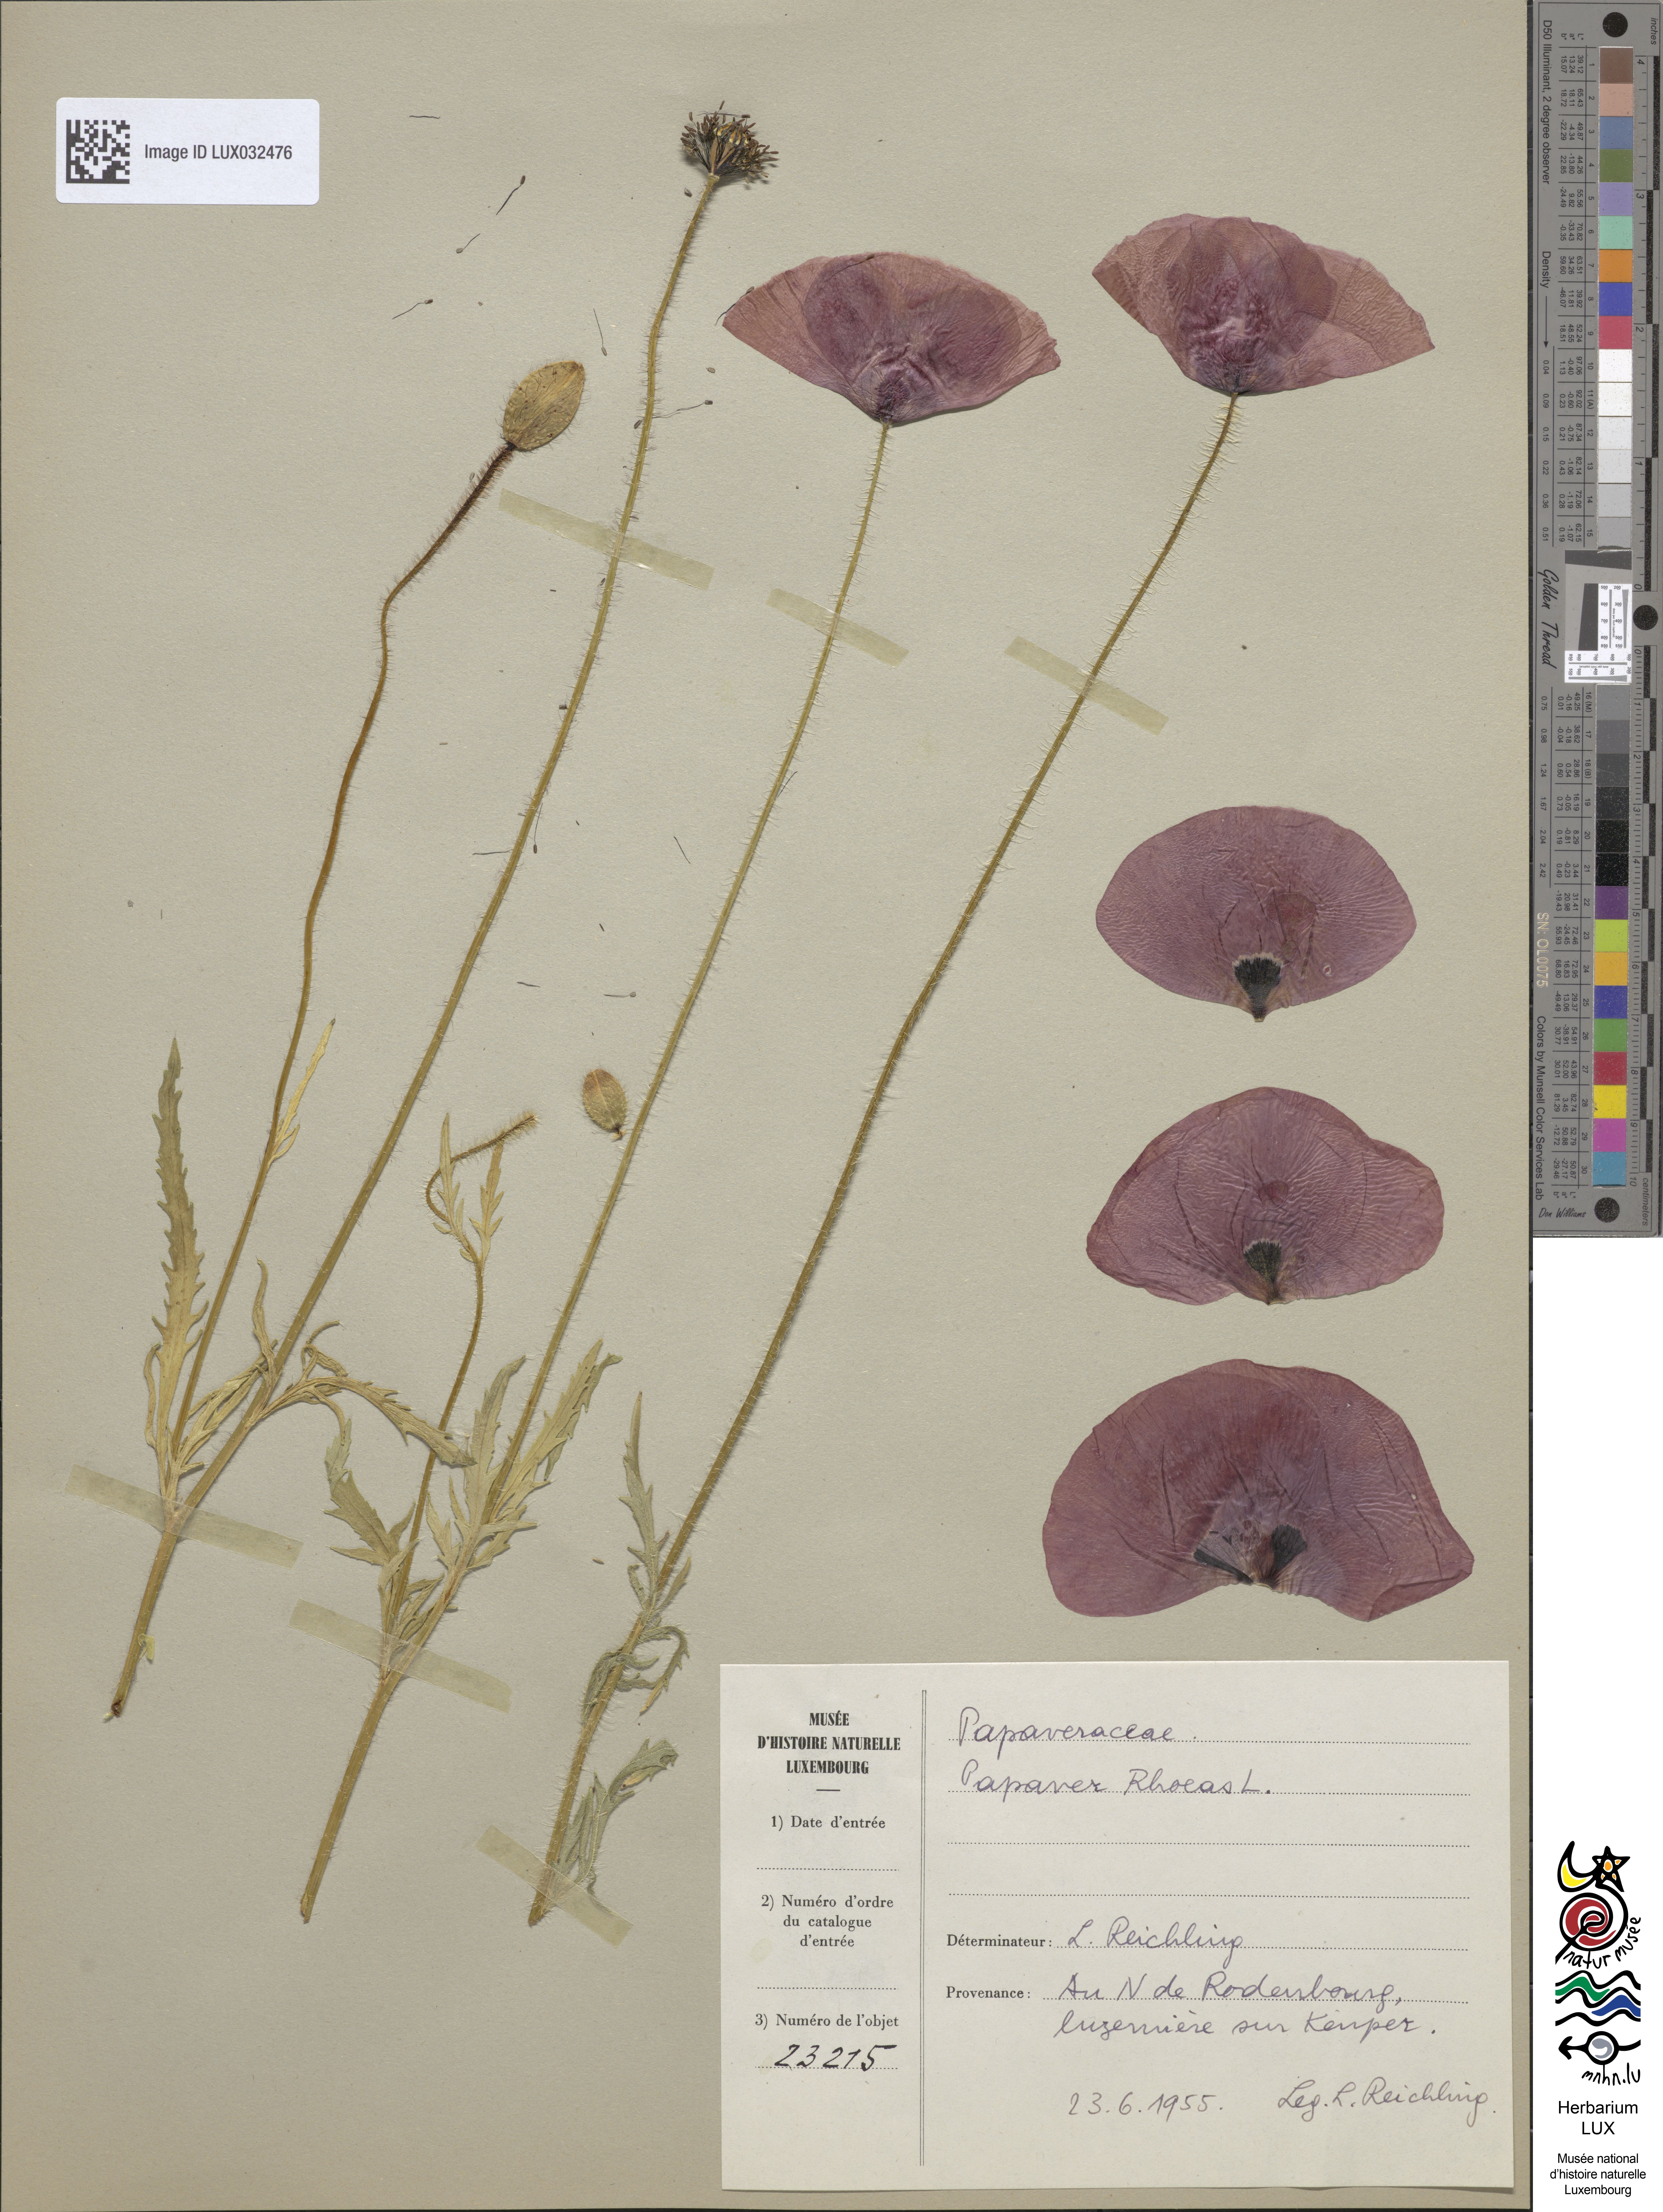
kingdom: Plantae
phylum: Tracheophyta
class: Magnoliopsida
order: Ranunculales
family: Papaveraceae
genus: Papaver
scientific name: Papaver rhoeas
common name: Corn poppy
